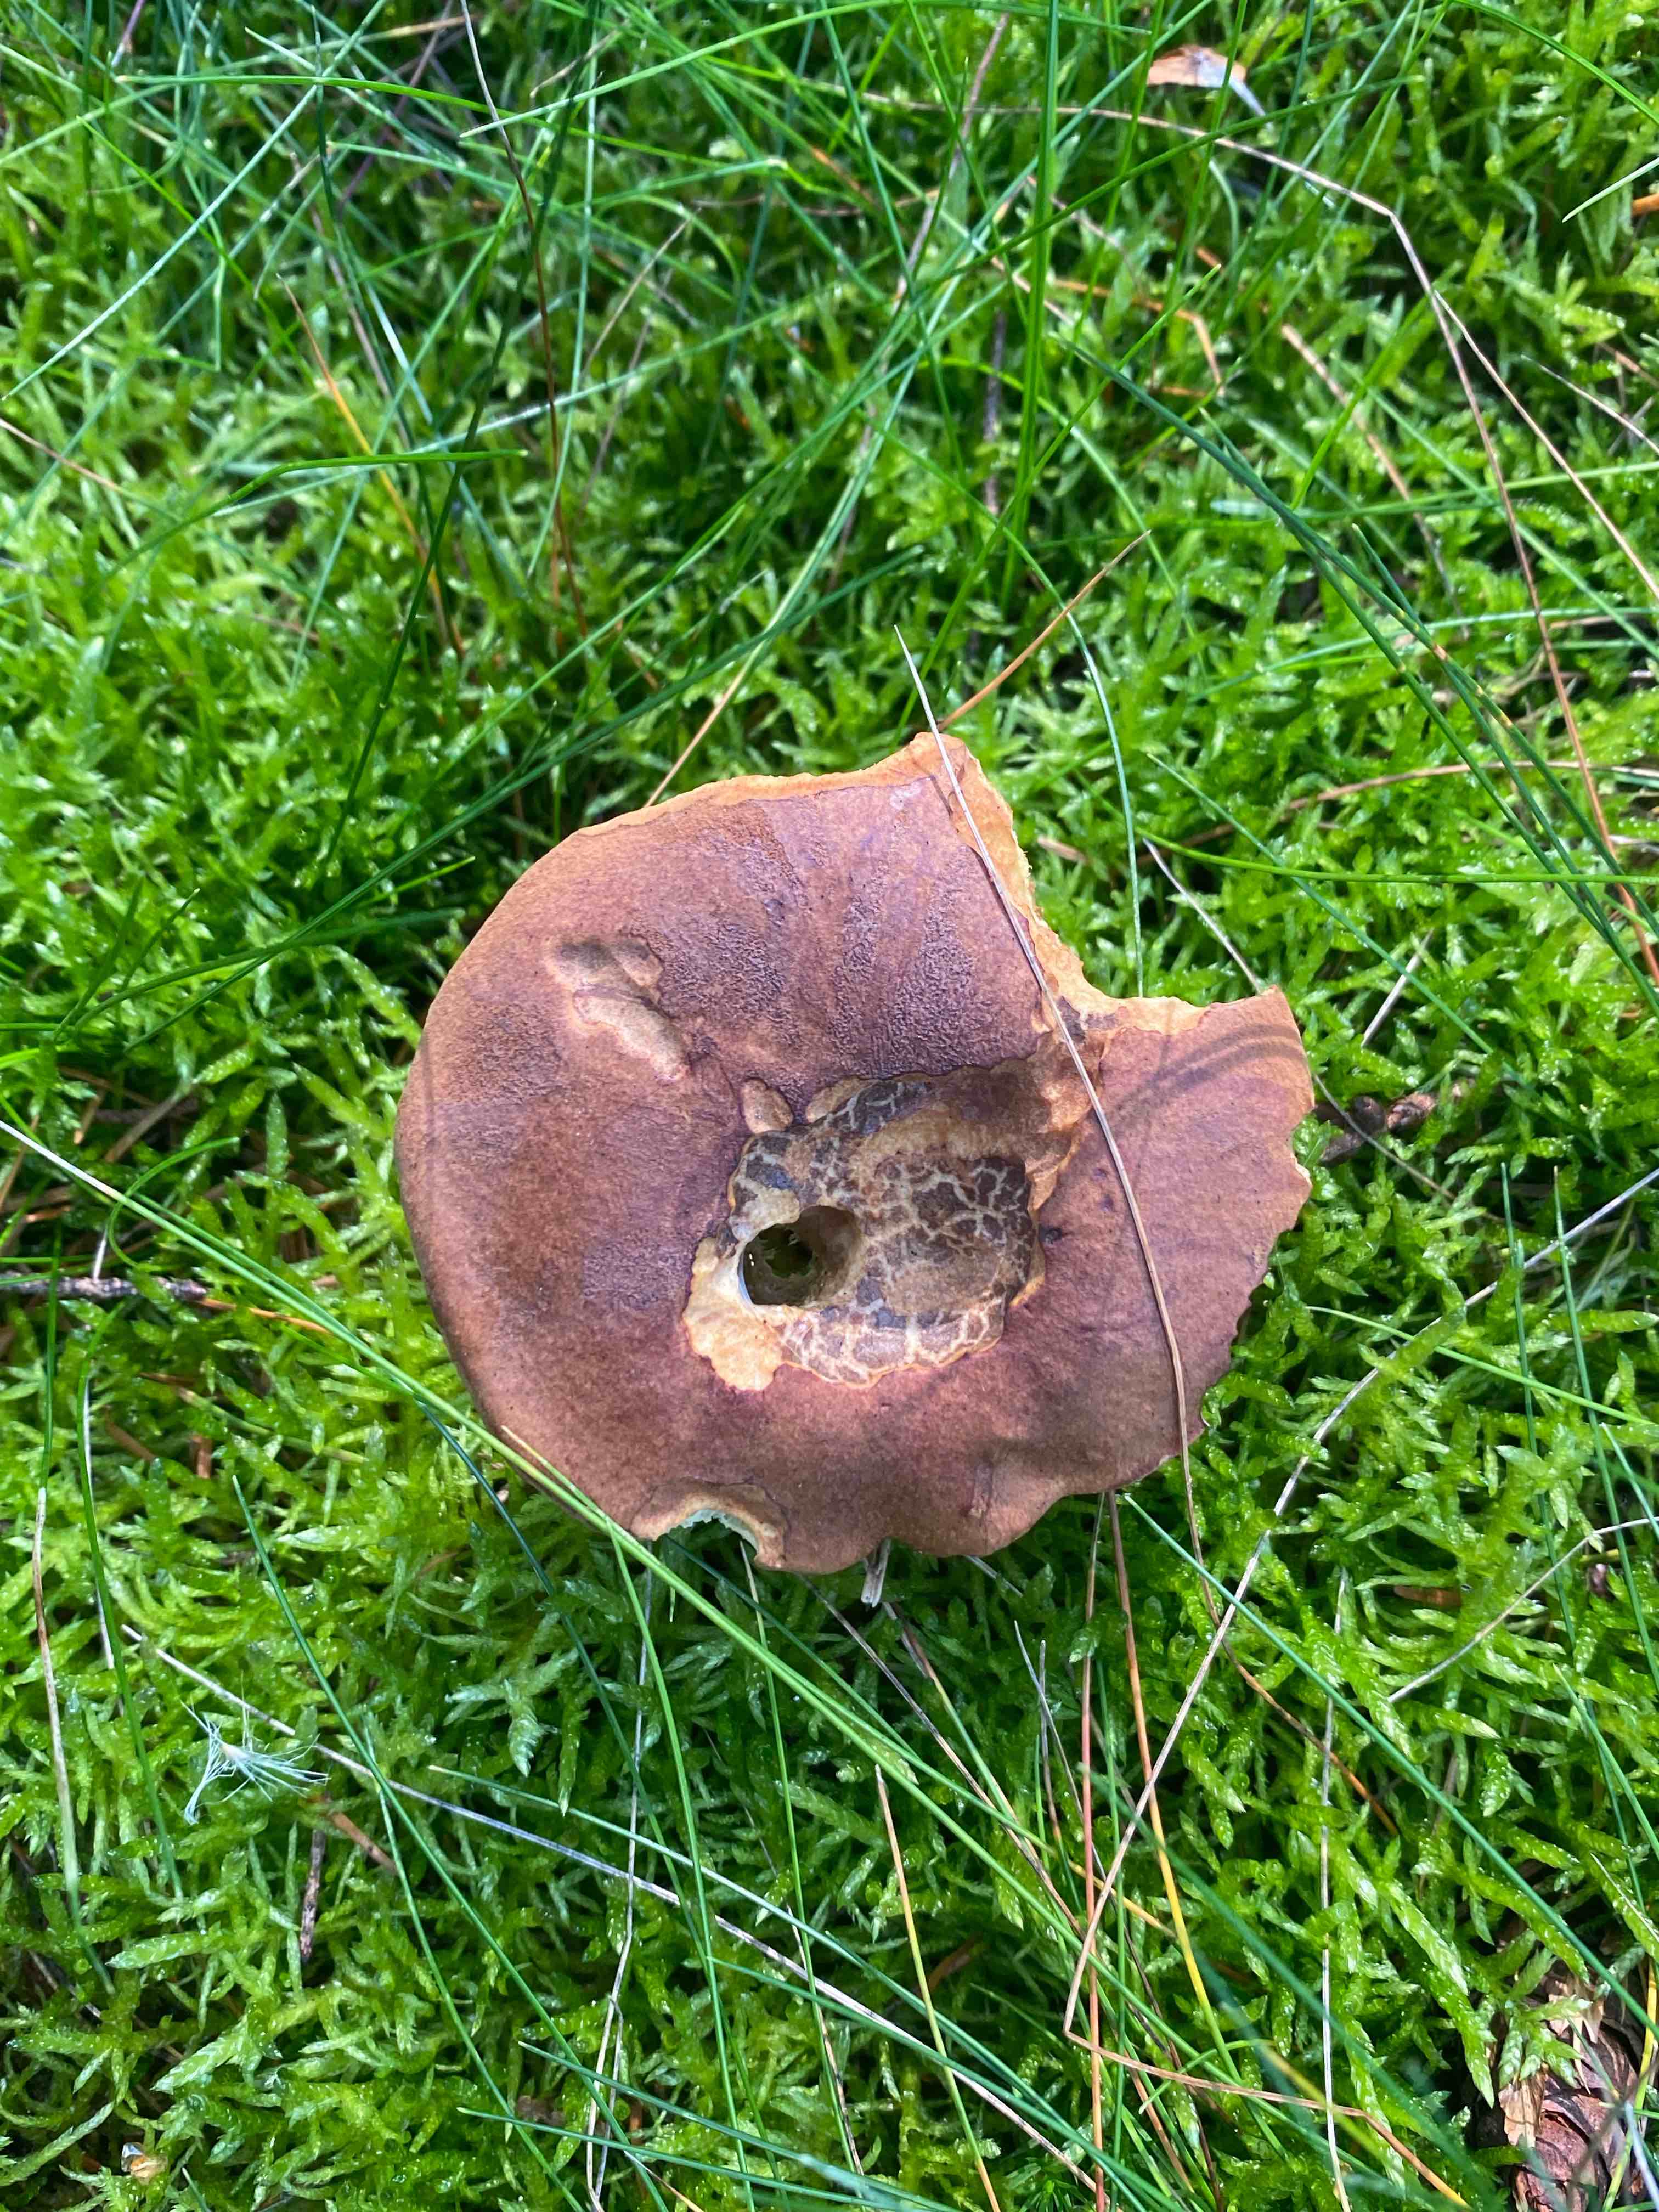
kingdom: Fungi
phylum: Basidiomycota
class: Agaricomycetes
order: Boletales
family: Boletaceae
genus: Imleria
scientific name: Imleria badia
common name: brunstokket rørhat
